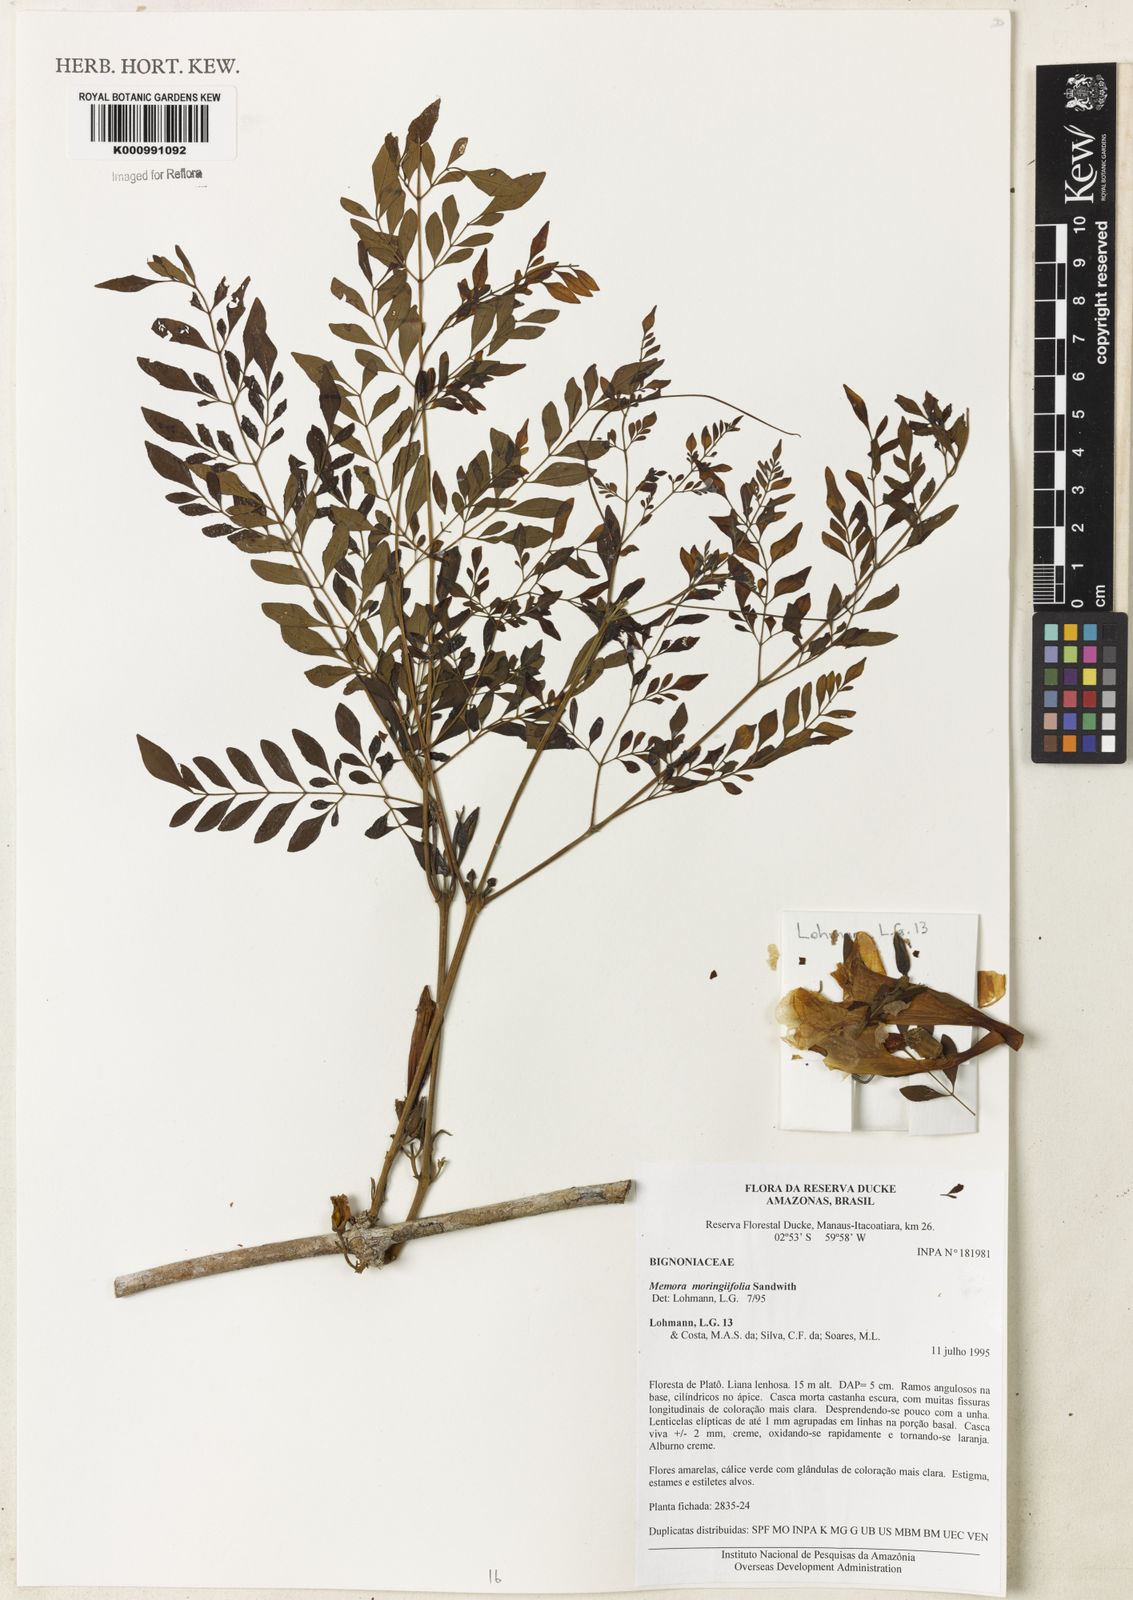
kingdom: Plantae
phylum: Tracheophyta
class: Magnoliopsida
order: Lamiales
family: Bignoniaceae
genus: Adenocalymma
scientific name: Adenocalymma moringifolium
